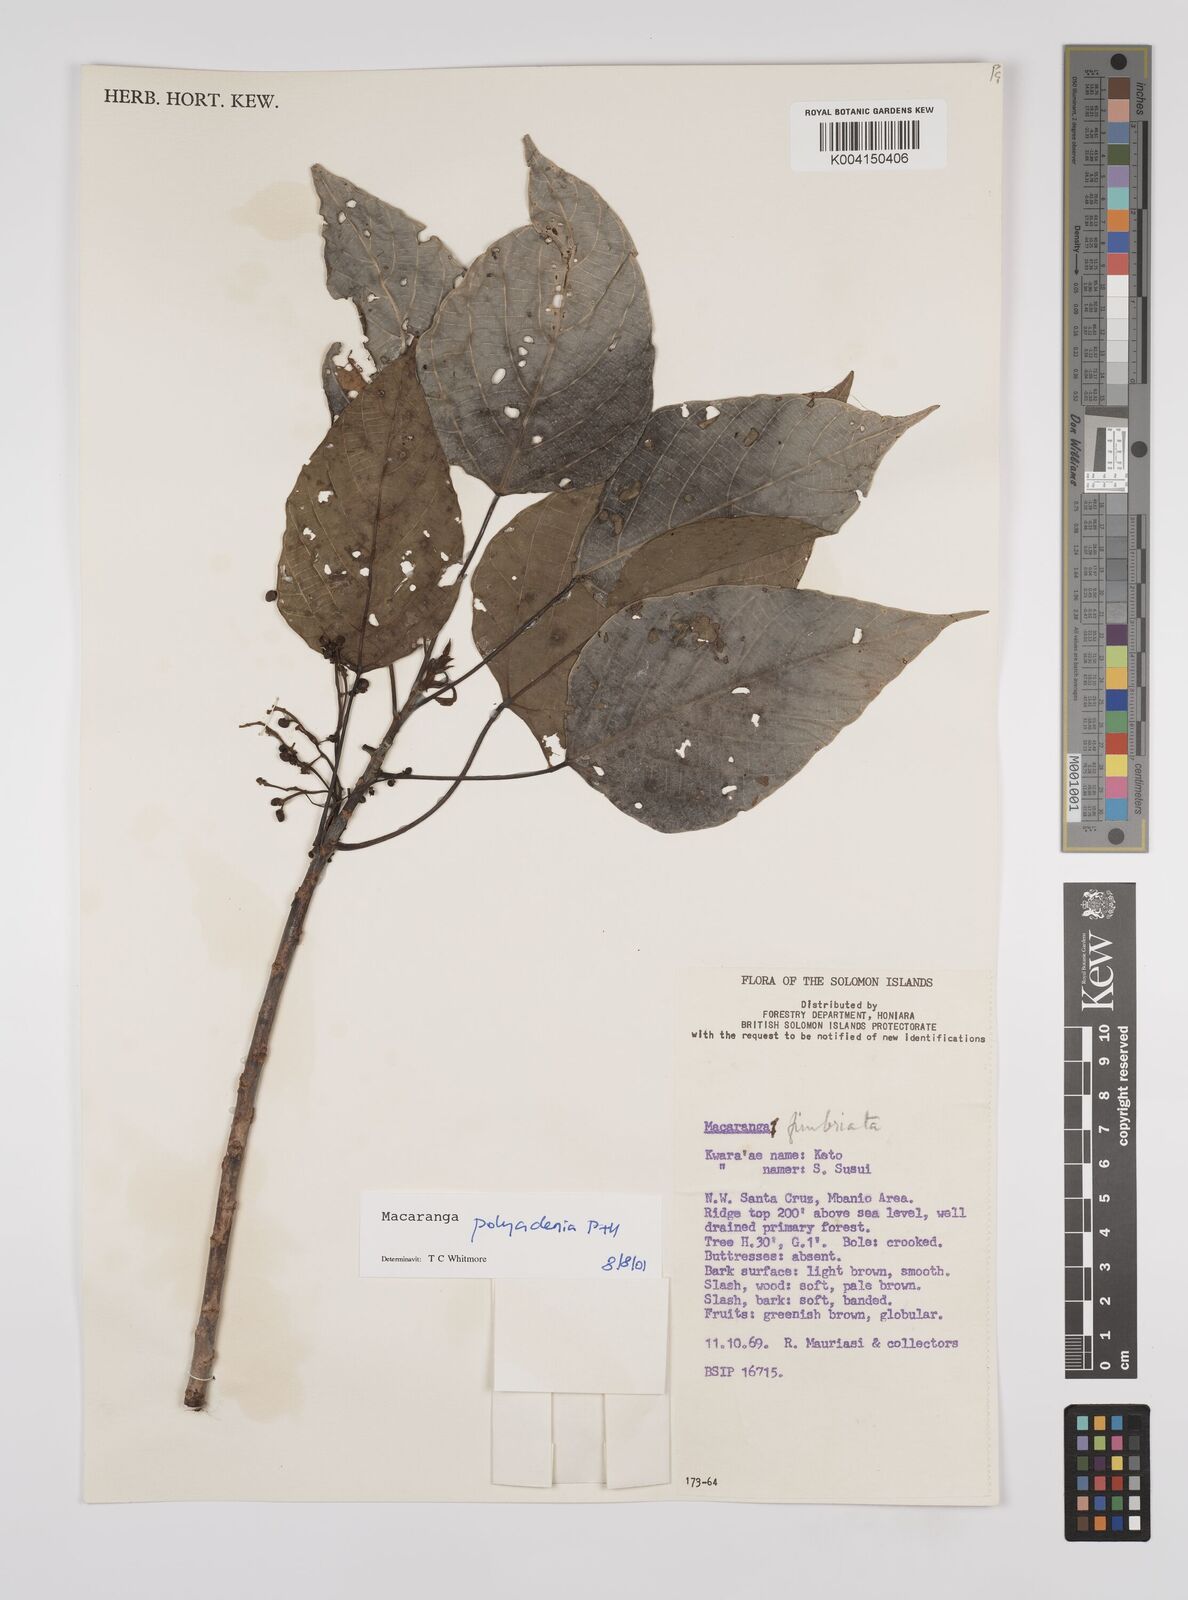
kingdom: Plantae
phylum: Tracheophyta
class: Magnoliopsida
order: Malpighiales
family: Euphorbiaceae
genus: Macaranga
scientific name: Macaranga polyadenia
